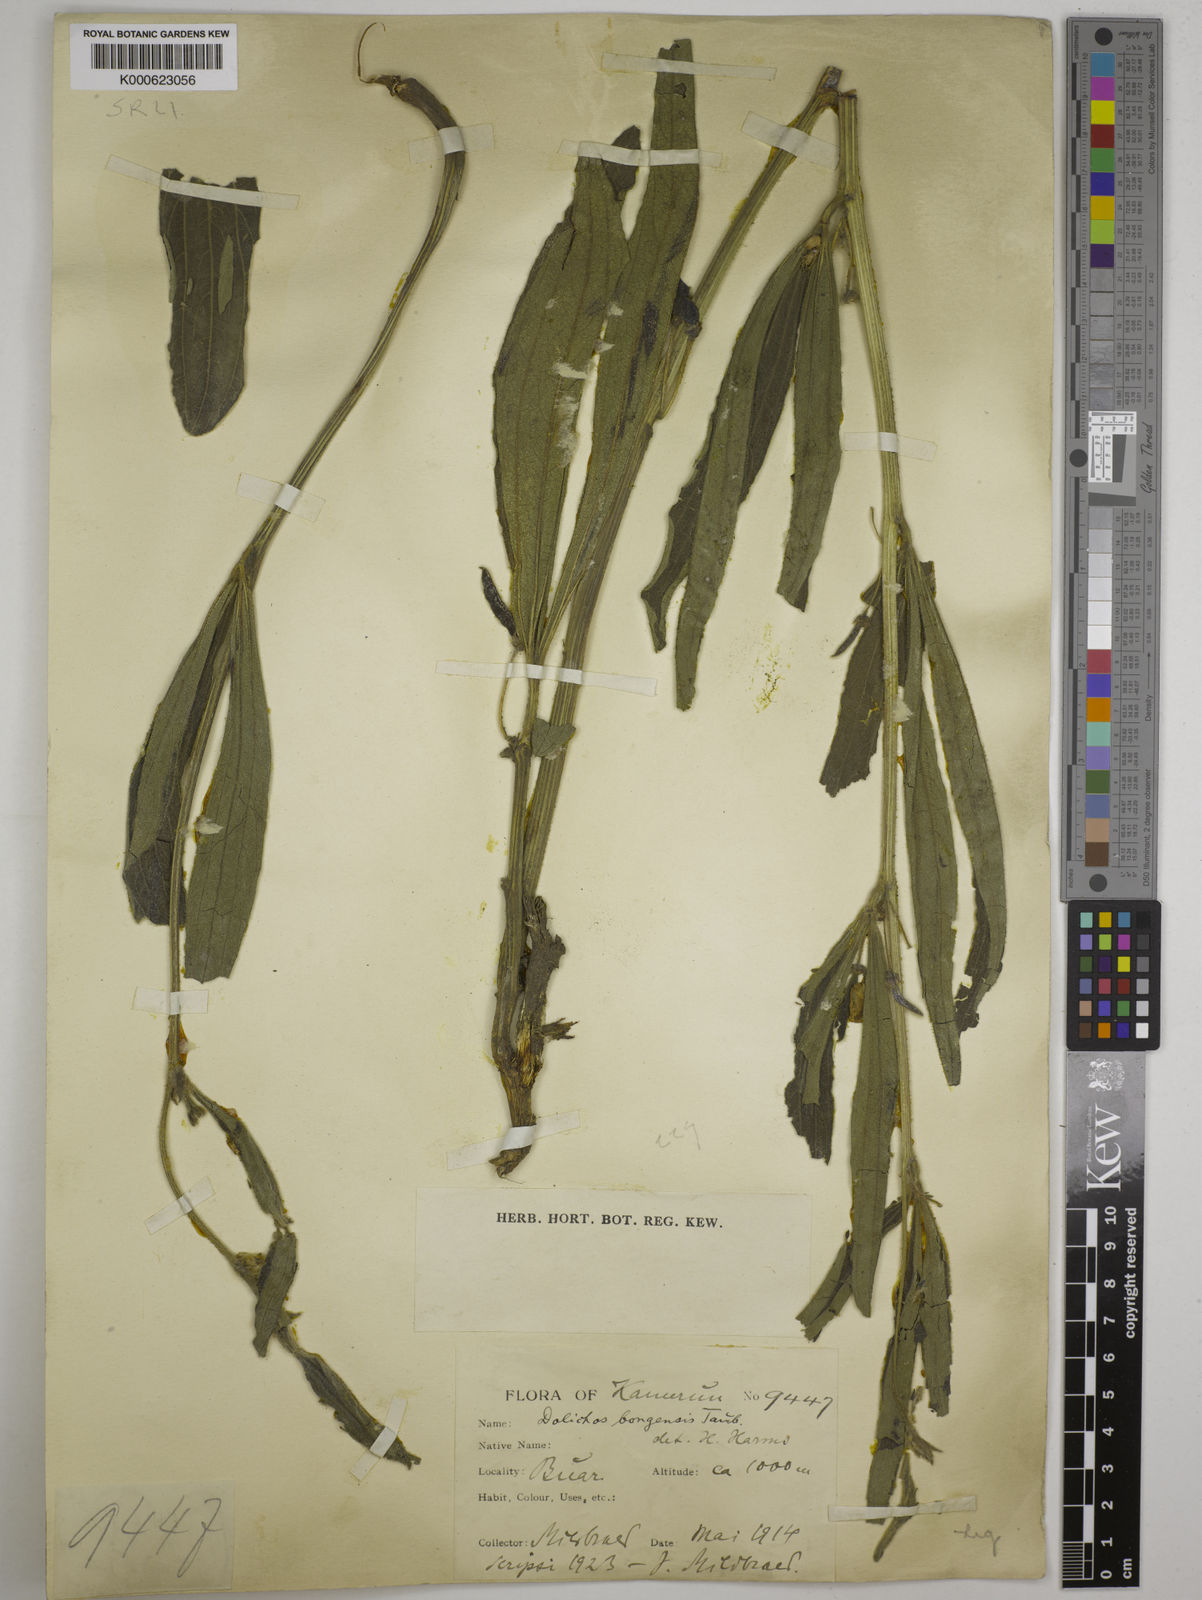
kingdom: Plantae
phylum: Tracheophyta
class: Magnoliopsida
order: Fabales
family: Fabaceae
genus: Dolichos
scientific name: Dolichos
